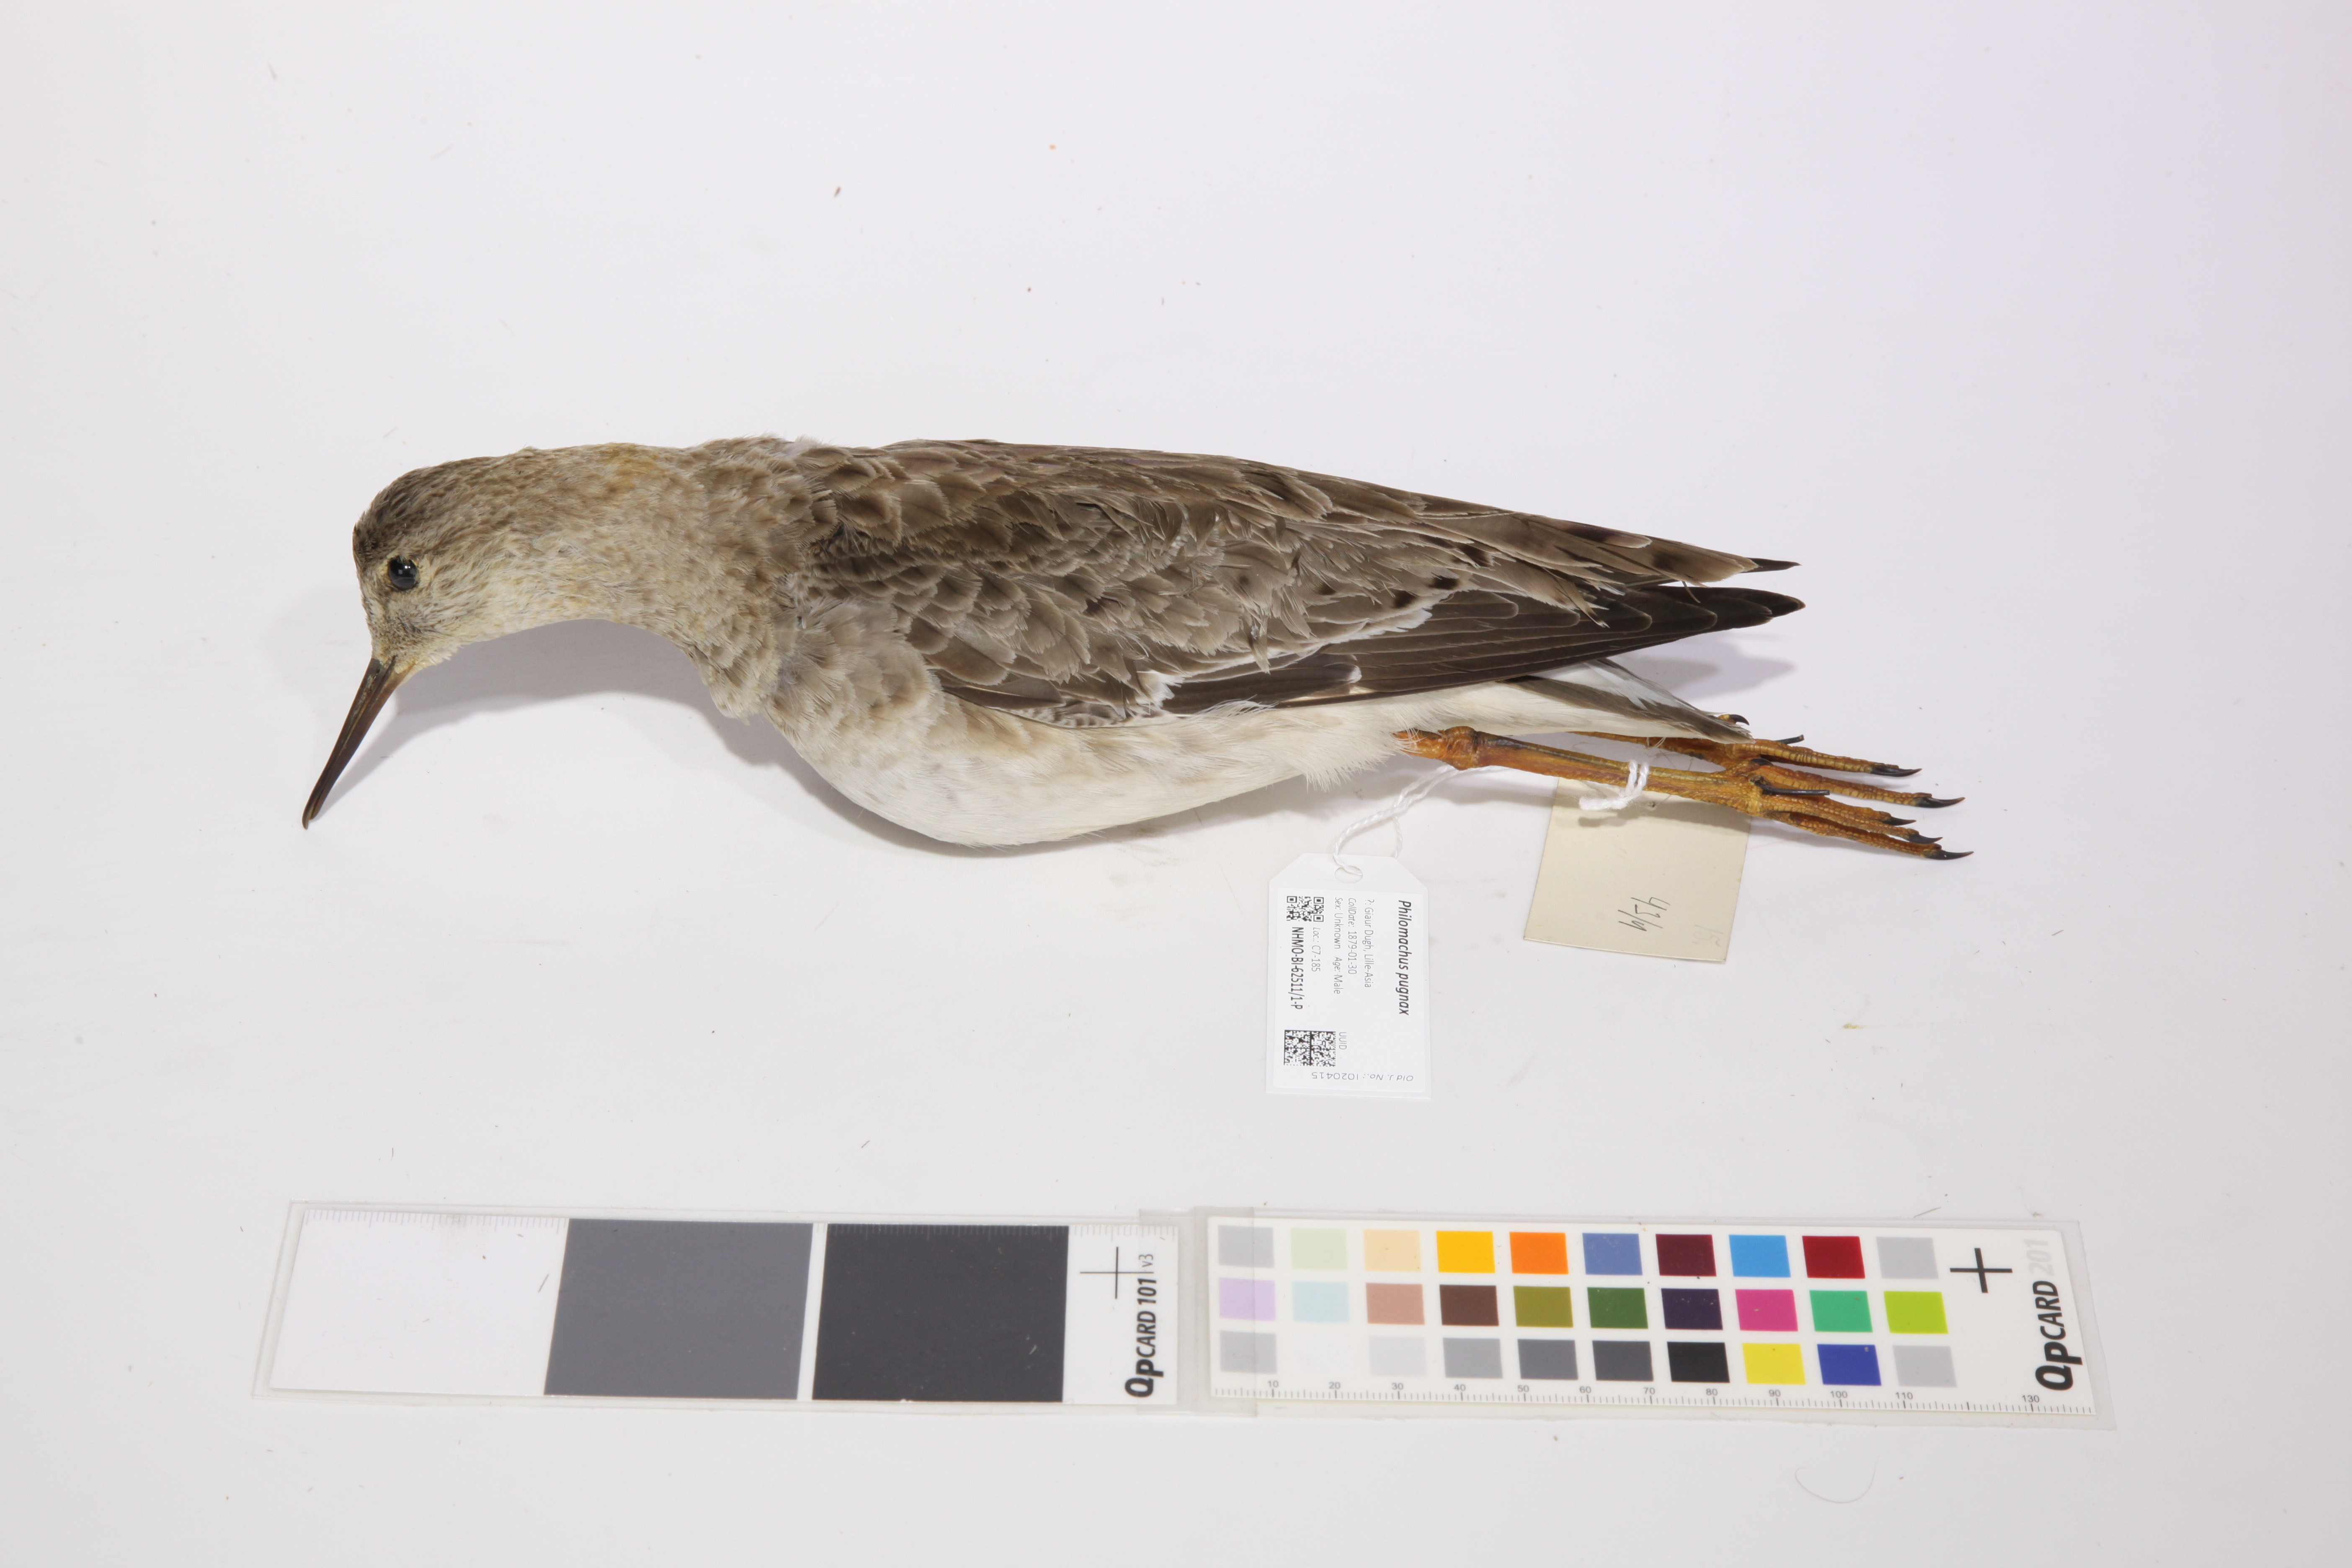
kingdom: Animalia
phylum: Chordata
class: Aves
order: Charadriiformes
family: Scolopacidae
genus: Calidris
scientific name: Calidris pugnax
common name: Ruff
